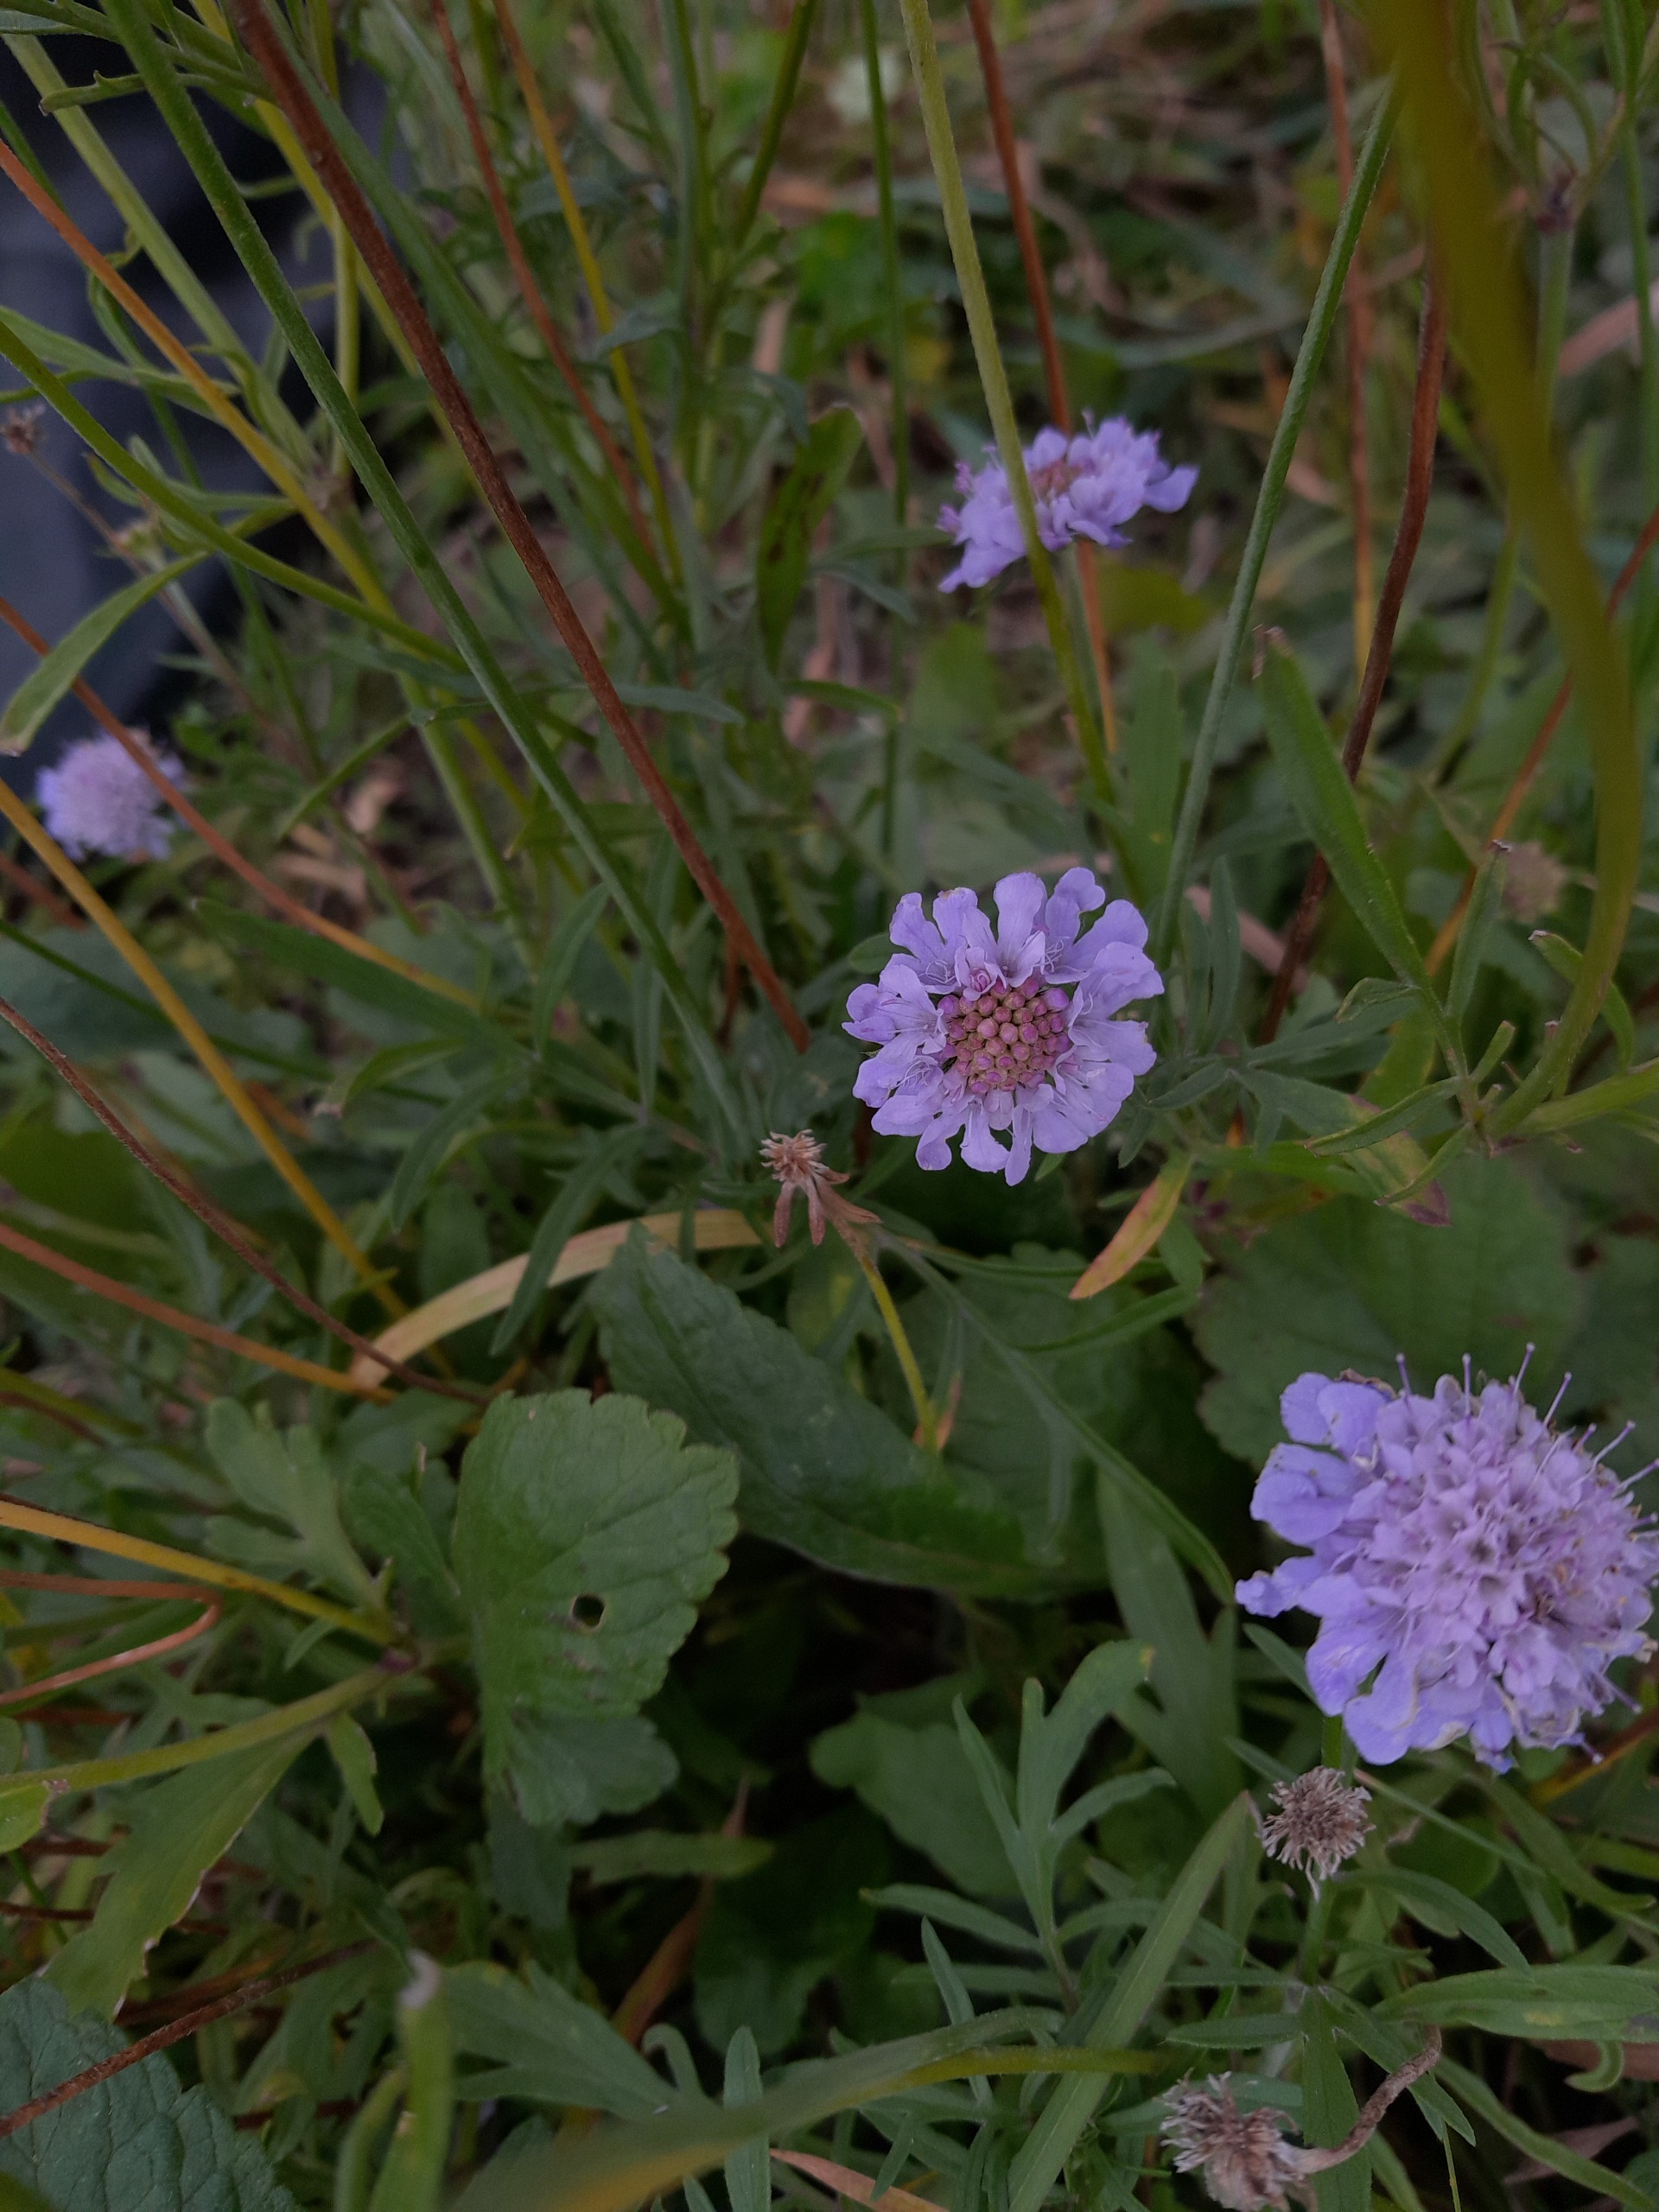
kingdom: Plantae
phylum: Tracheophyta
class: Magnoliopsida
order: Dipsacales
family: Caprifoliaceae
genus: Scabiosa
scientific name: Scabiosa columbaria
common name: Due-skabiose
